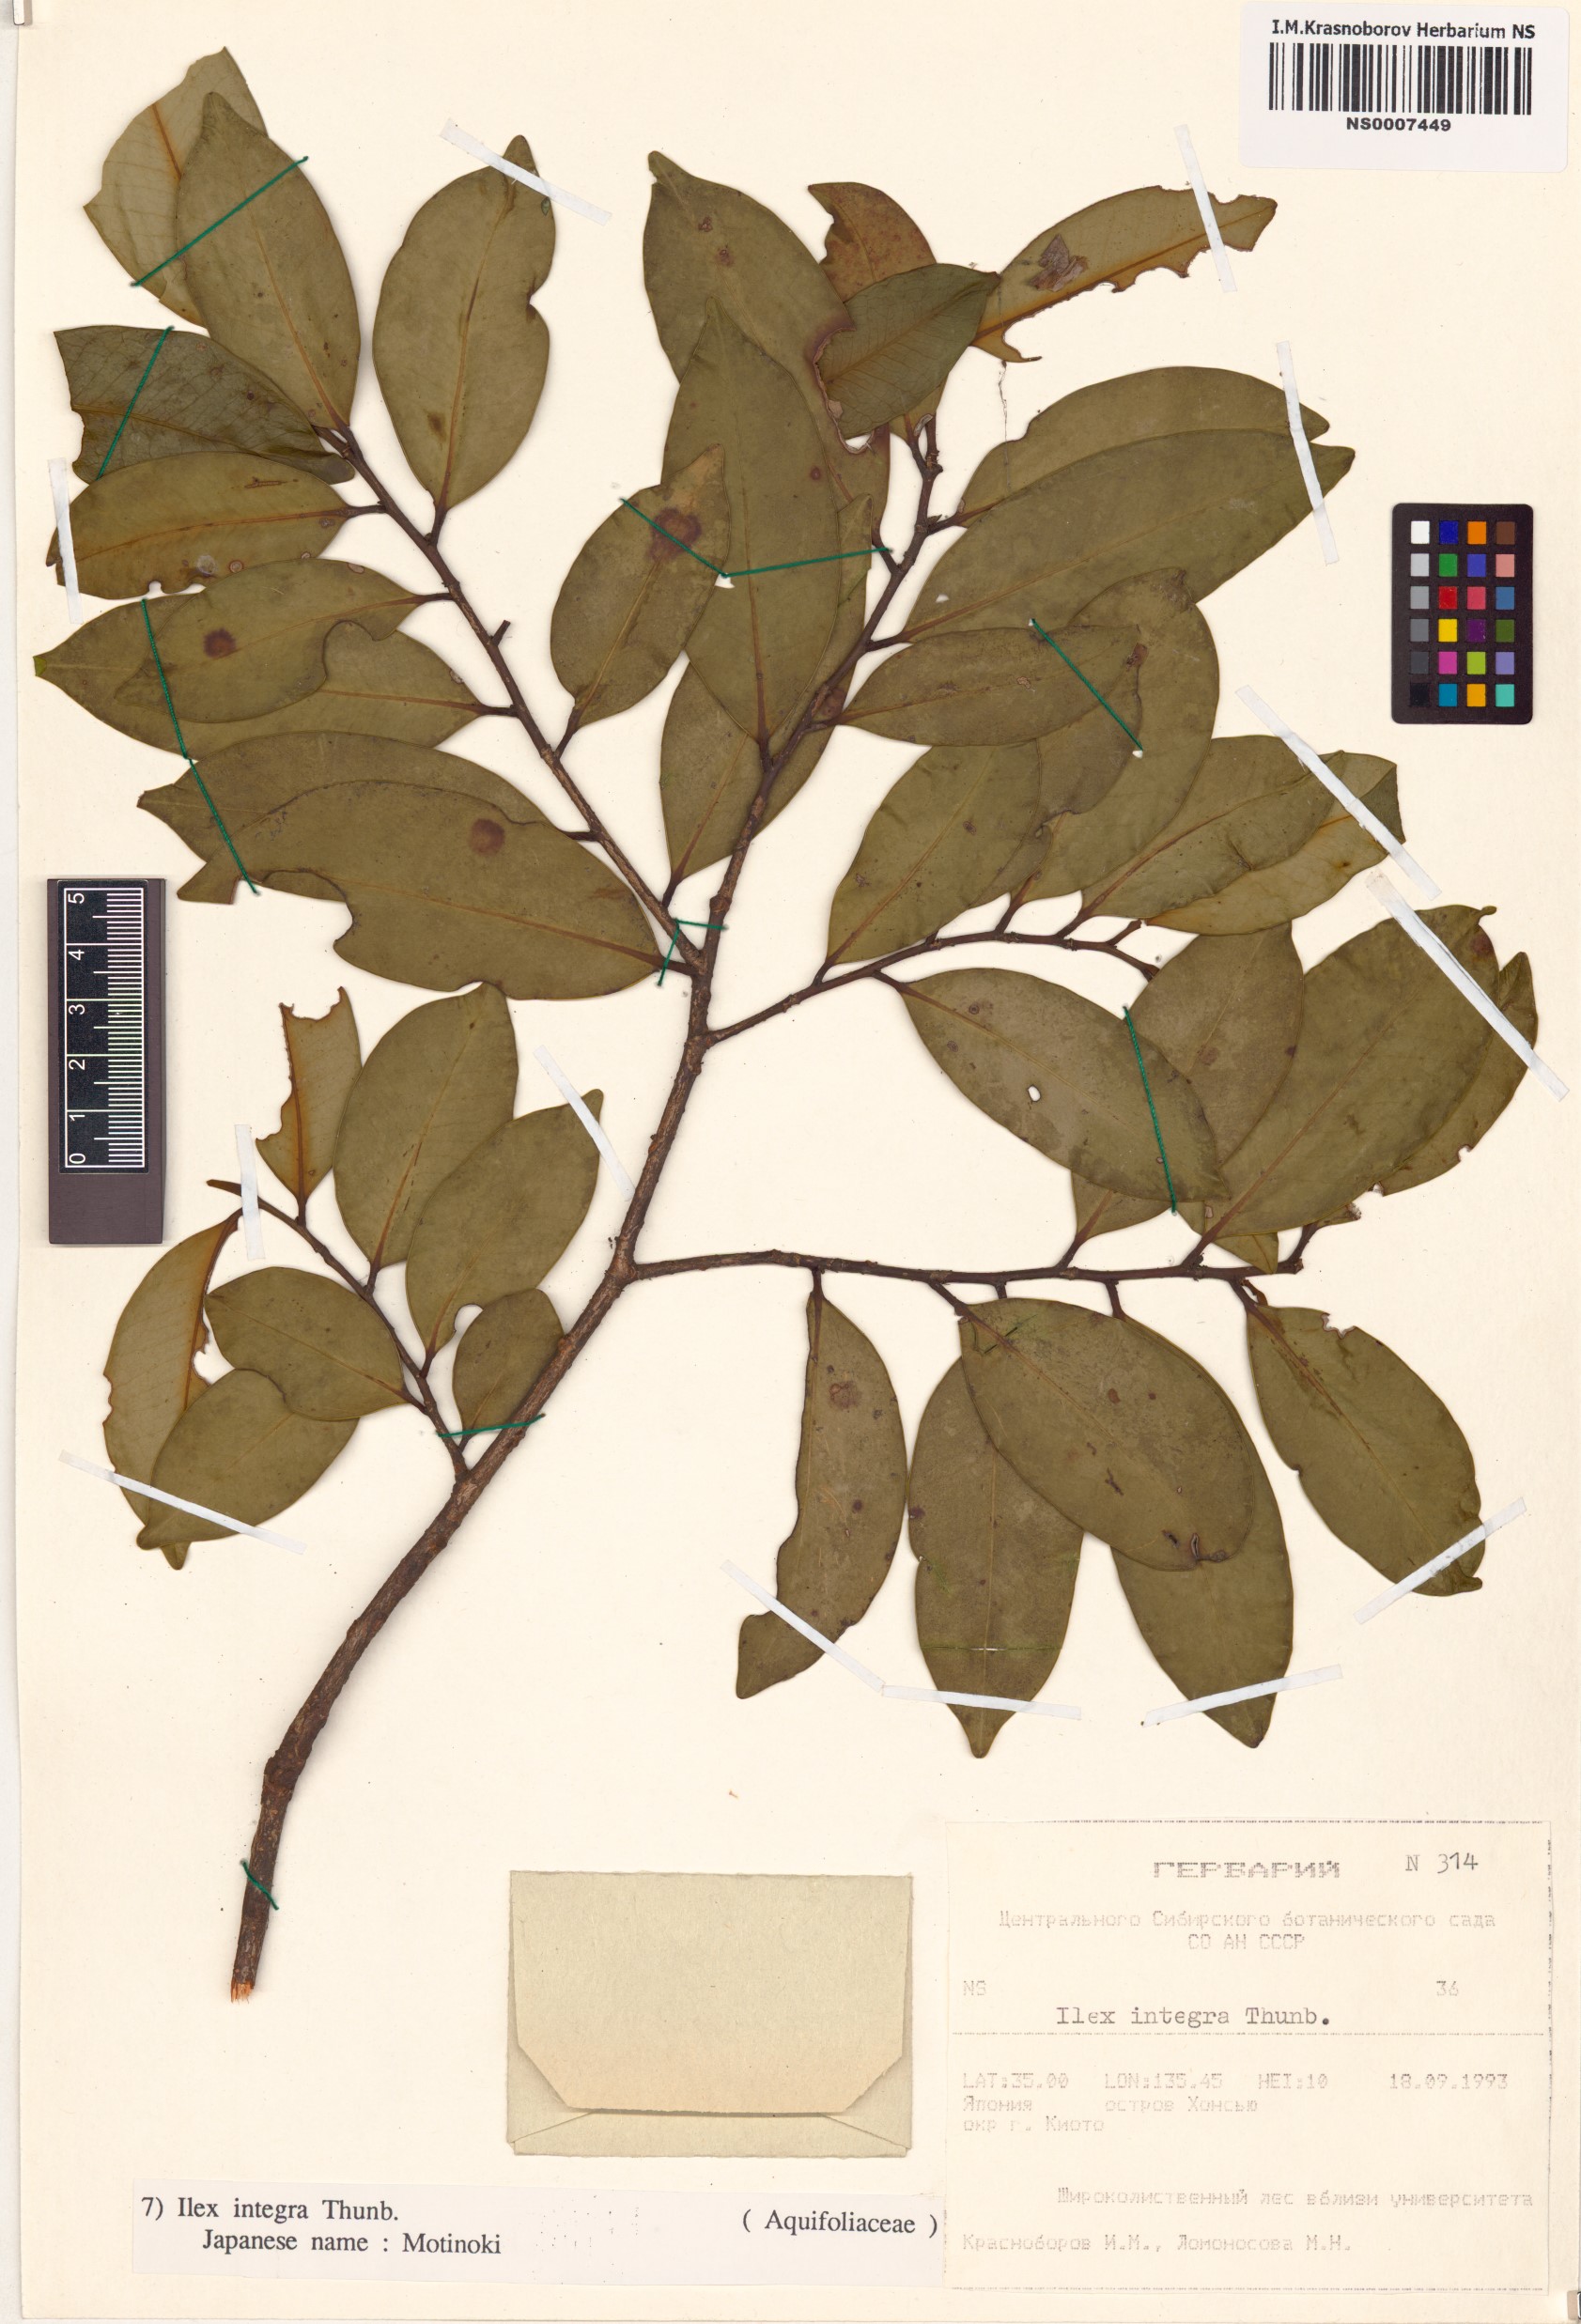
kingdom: Plantae
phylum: Tracheophyta
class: Magnoliopsida
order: Aquifoliales
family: Aquifoliaceae
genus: Ilex
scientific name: Ilex integra
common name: Mochitree
